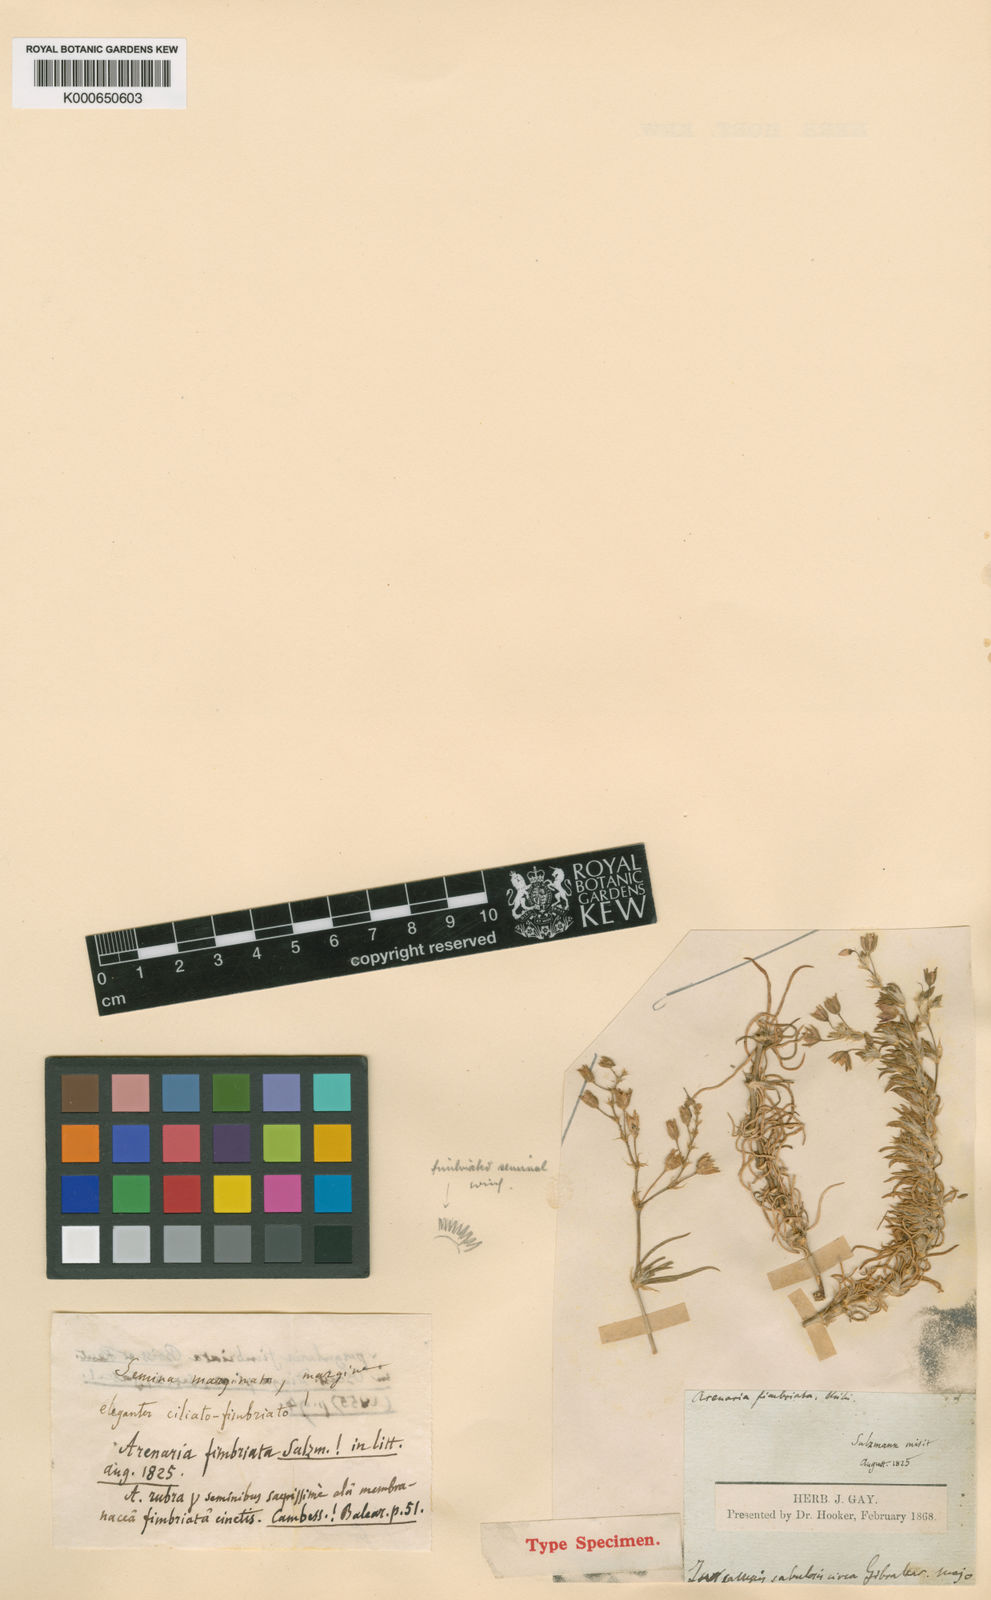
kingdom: Plantae
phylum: Tracheophyta
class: Magnoliopsida
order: Caryophyllales
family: Caryophyllaceae
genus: Spergularia
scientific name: Spergularia fimbriata
